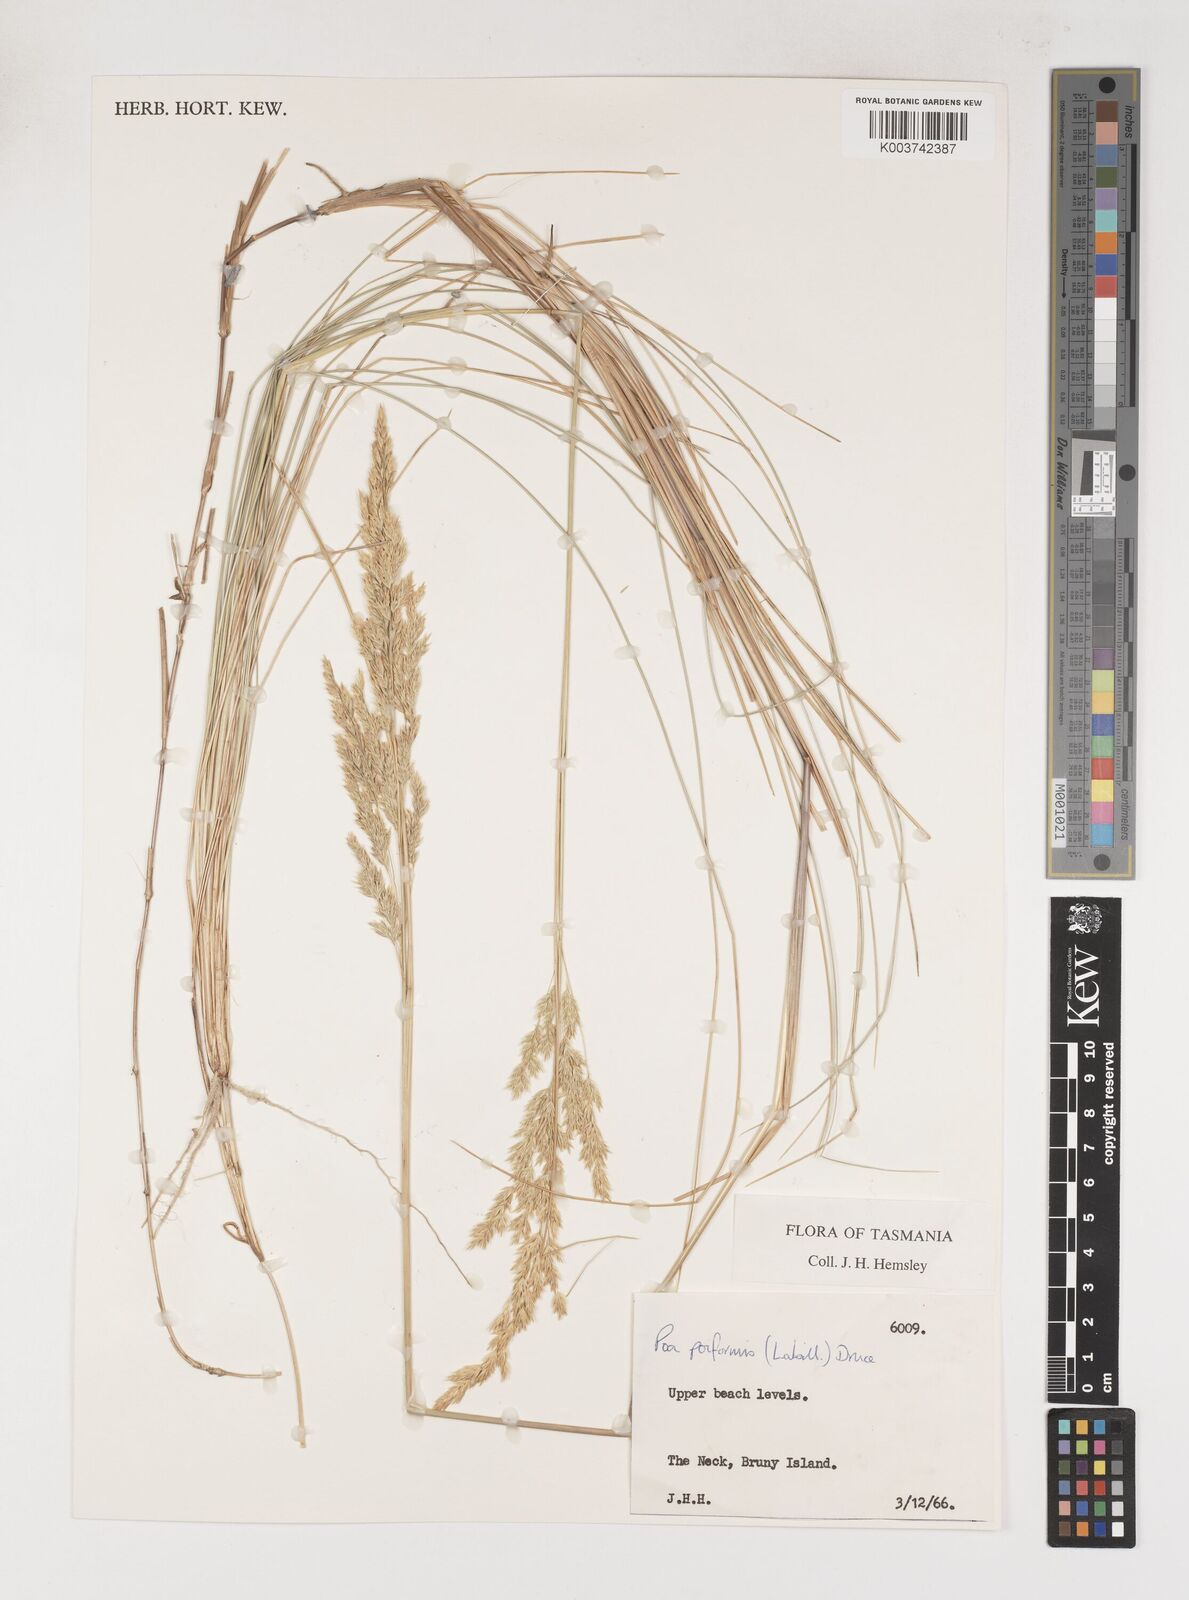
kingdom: Plantae
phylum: Tracheophyta
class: Liliopsida
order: Poales
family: Poaceae
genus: Poa
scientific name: Poa poiformis
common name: Tussock poa
